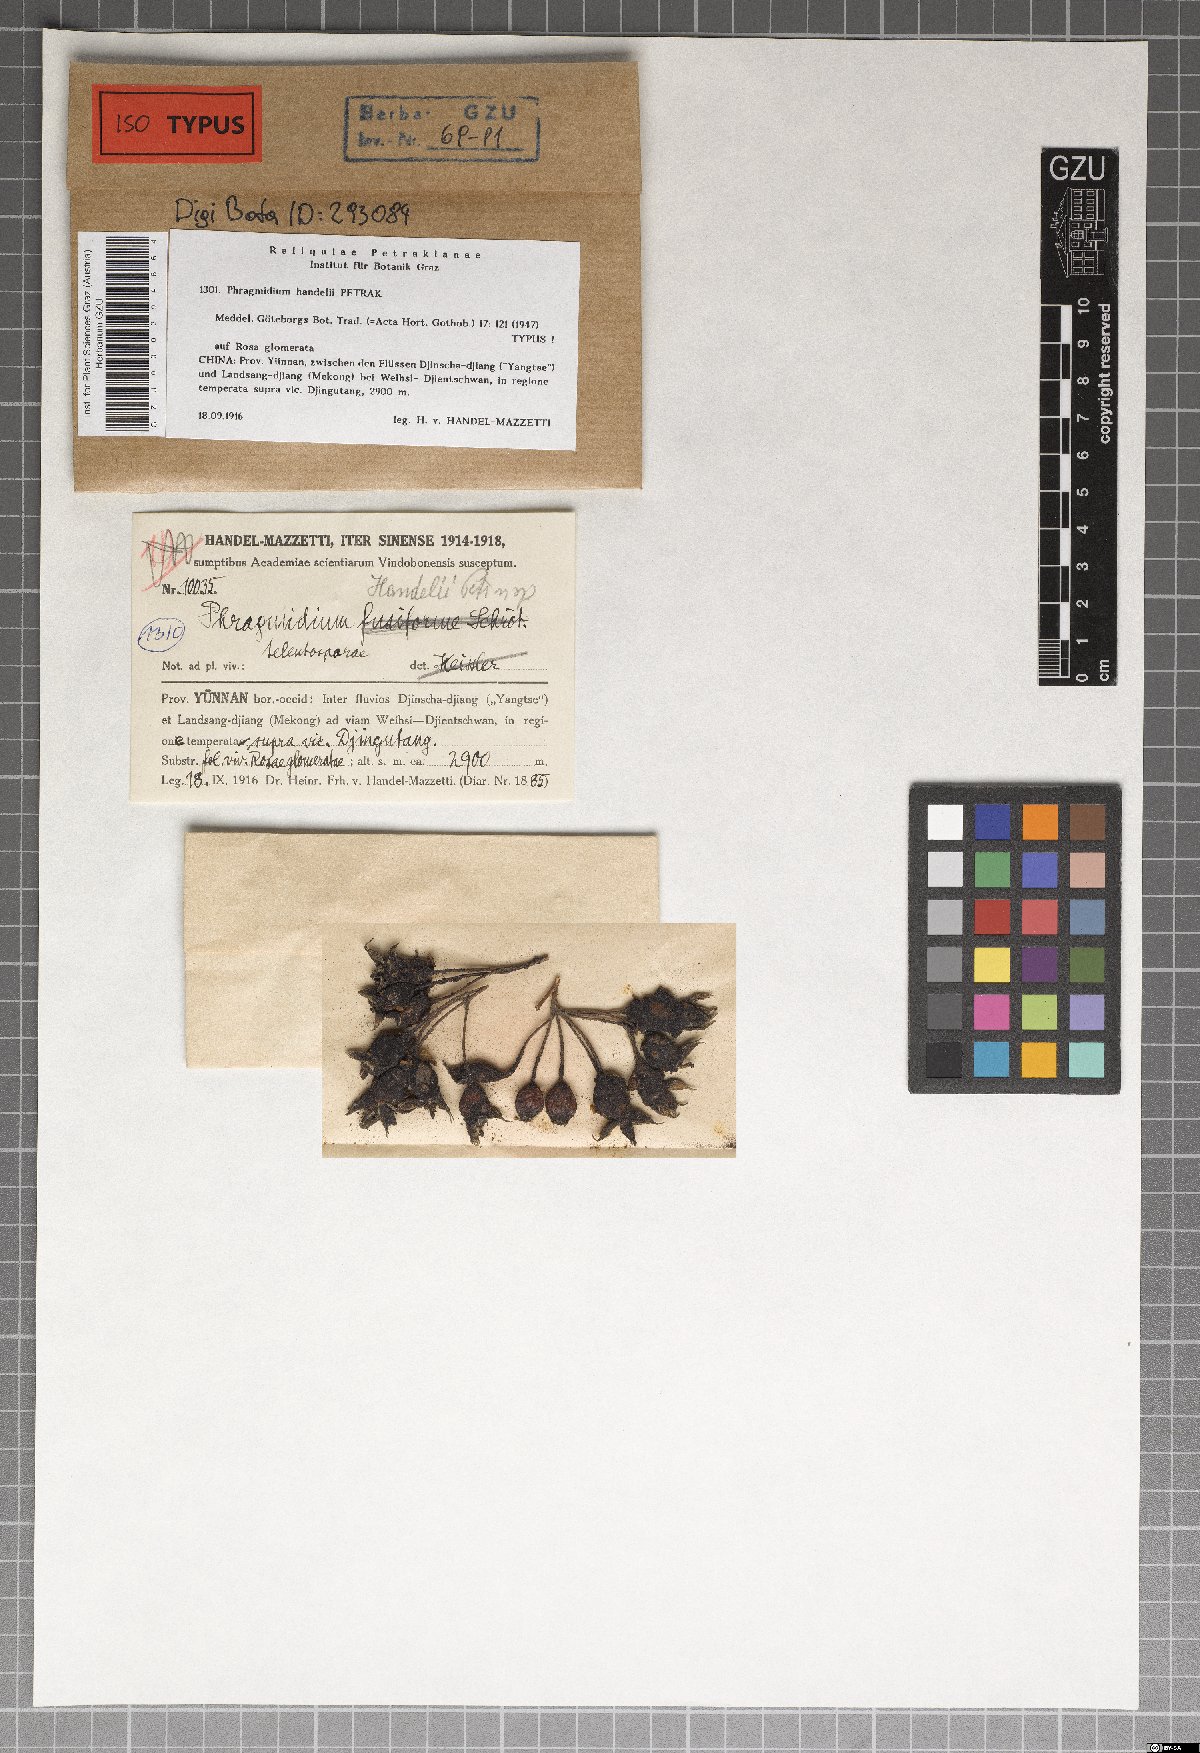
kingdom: Fungi
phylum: Basidiomycota
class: Pucciniomycetes
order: Pucciniales
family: Phragmidiaceae
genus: Phragmidium
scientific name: Phragmidium handelii
